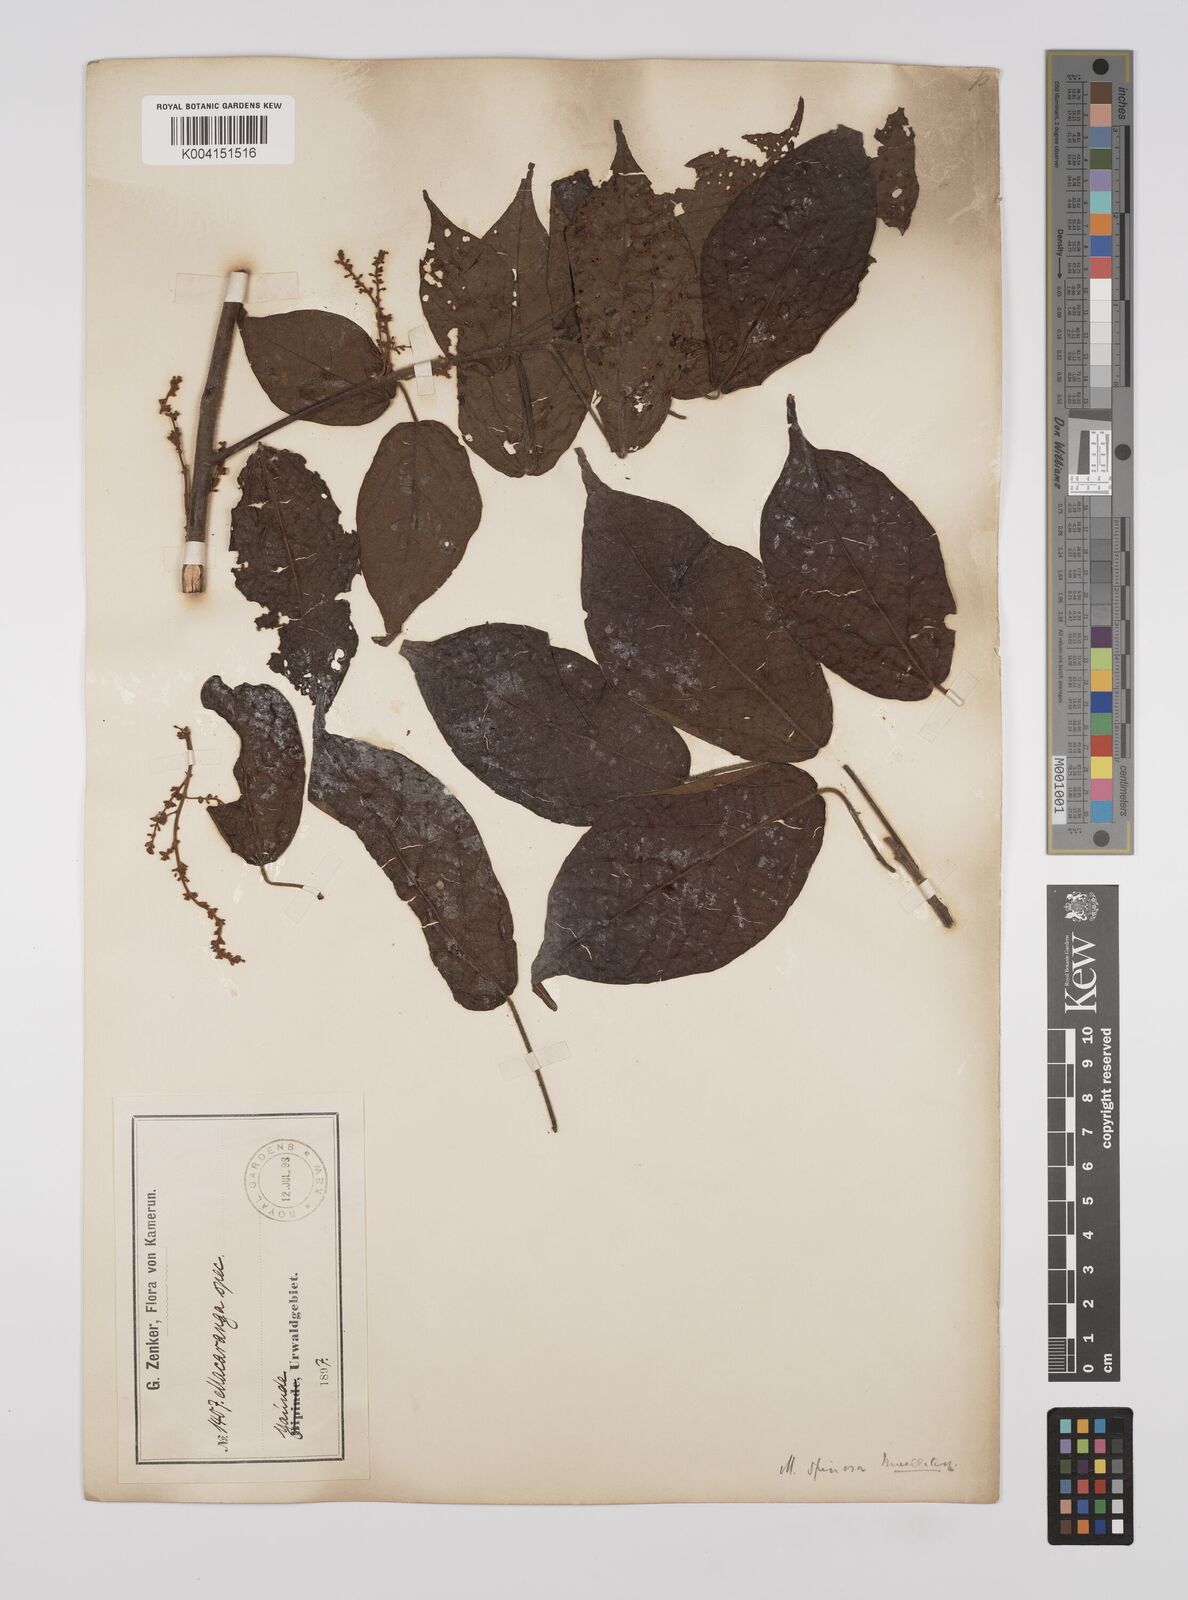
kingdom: Plantae
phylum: Tracheophyta
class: Magnoliopsida
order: Malpighiales
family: Euphorbiaceae
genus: Macaranga
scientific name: Macaranga spinosa
